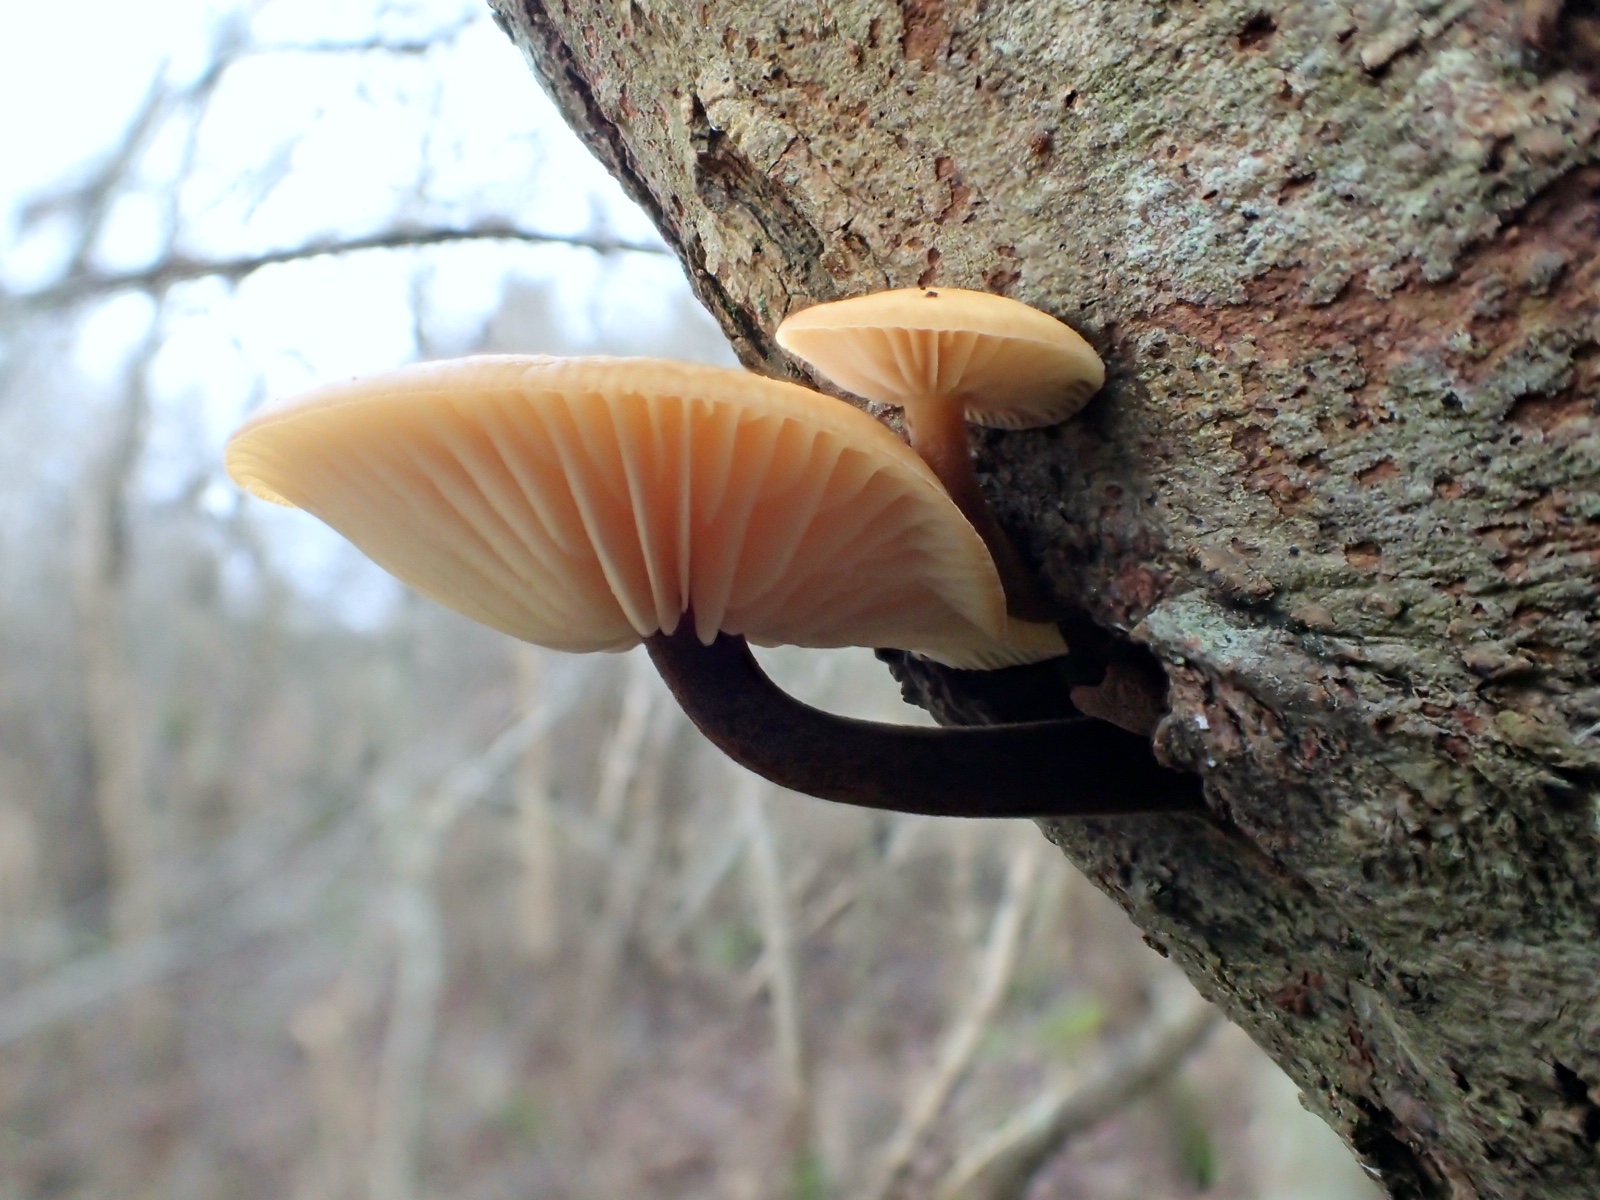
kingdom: Fungi
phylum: Basidiomycota
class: Agaricomycetes
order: Agaricales
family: Physalacriaceae
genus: Flammulina
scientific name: Flammulina
